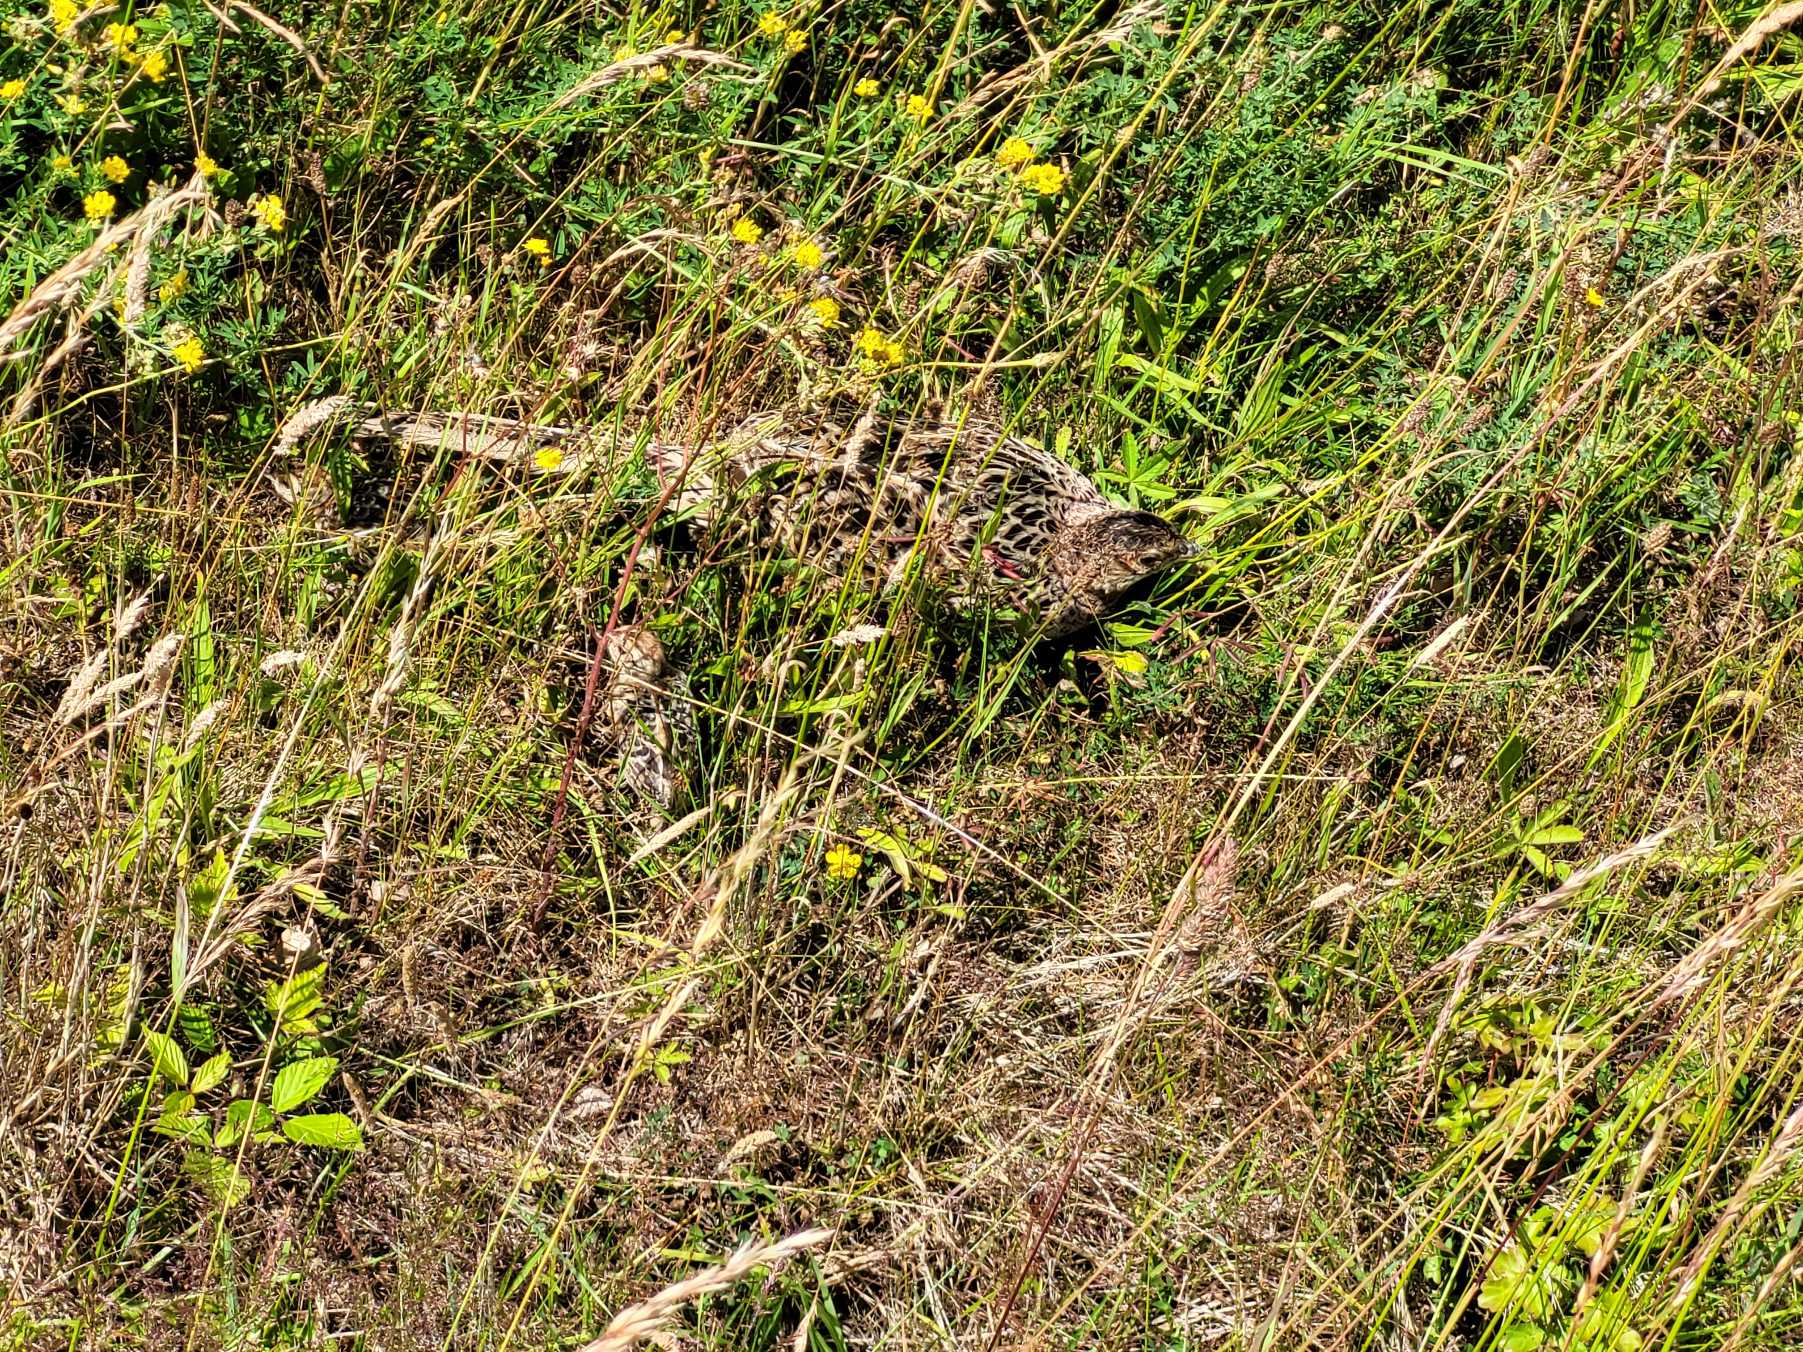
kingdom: Animalia
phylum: Chordata
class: Aves
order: Galliformes
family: Phasianidae
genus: Phasianus
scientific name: Phasianus colchicus
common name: Fasan
